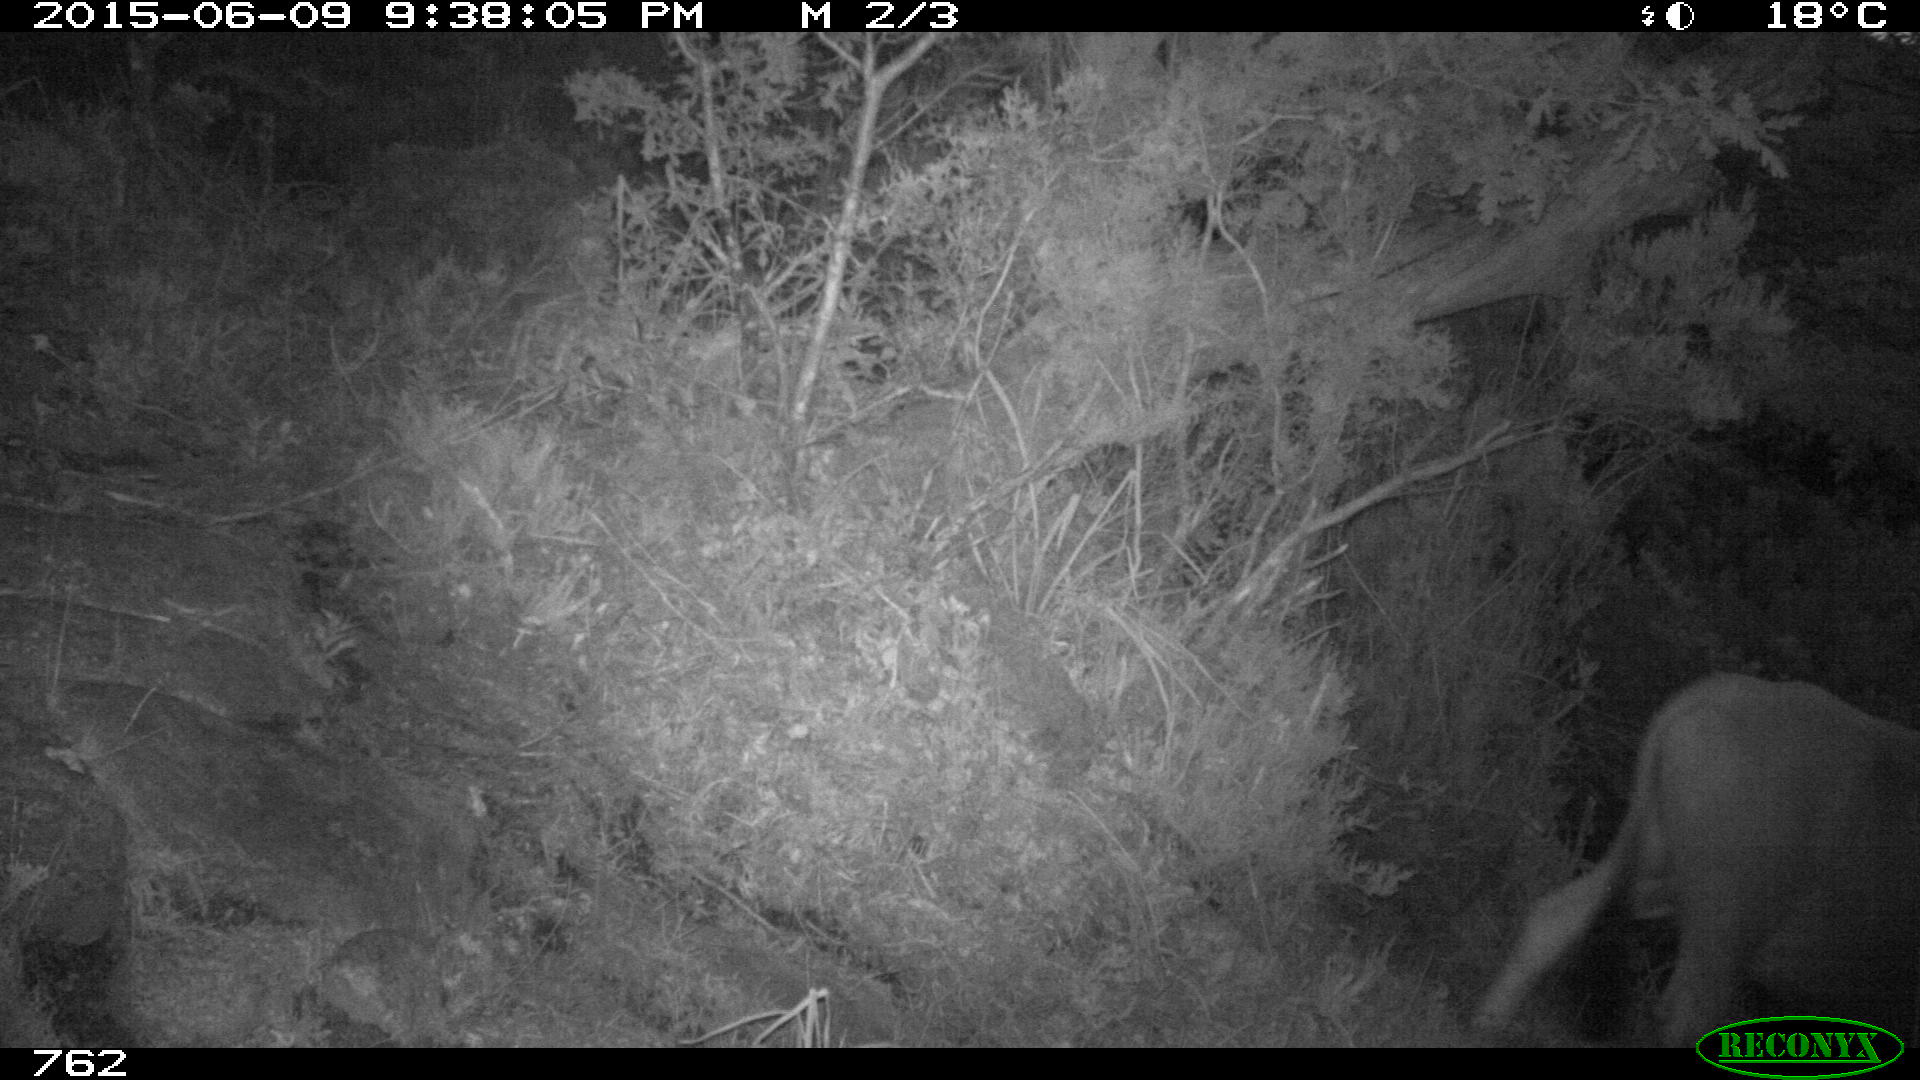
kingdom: Animalia
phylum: Chordata
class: Mammalia
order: Artiodactyla
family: Bovidae
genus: Bos
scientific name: Bos taurus
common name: Domesticated cattle
